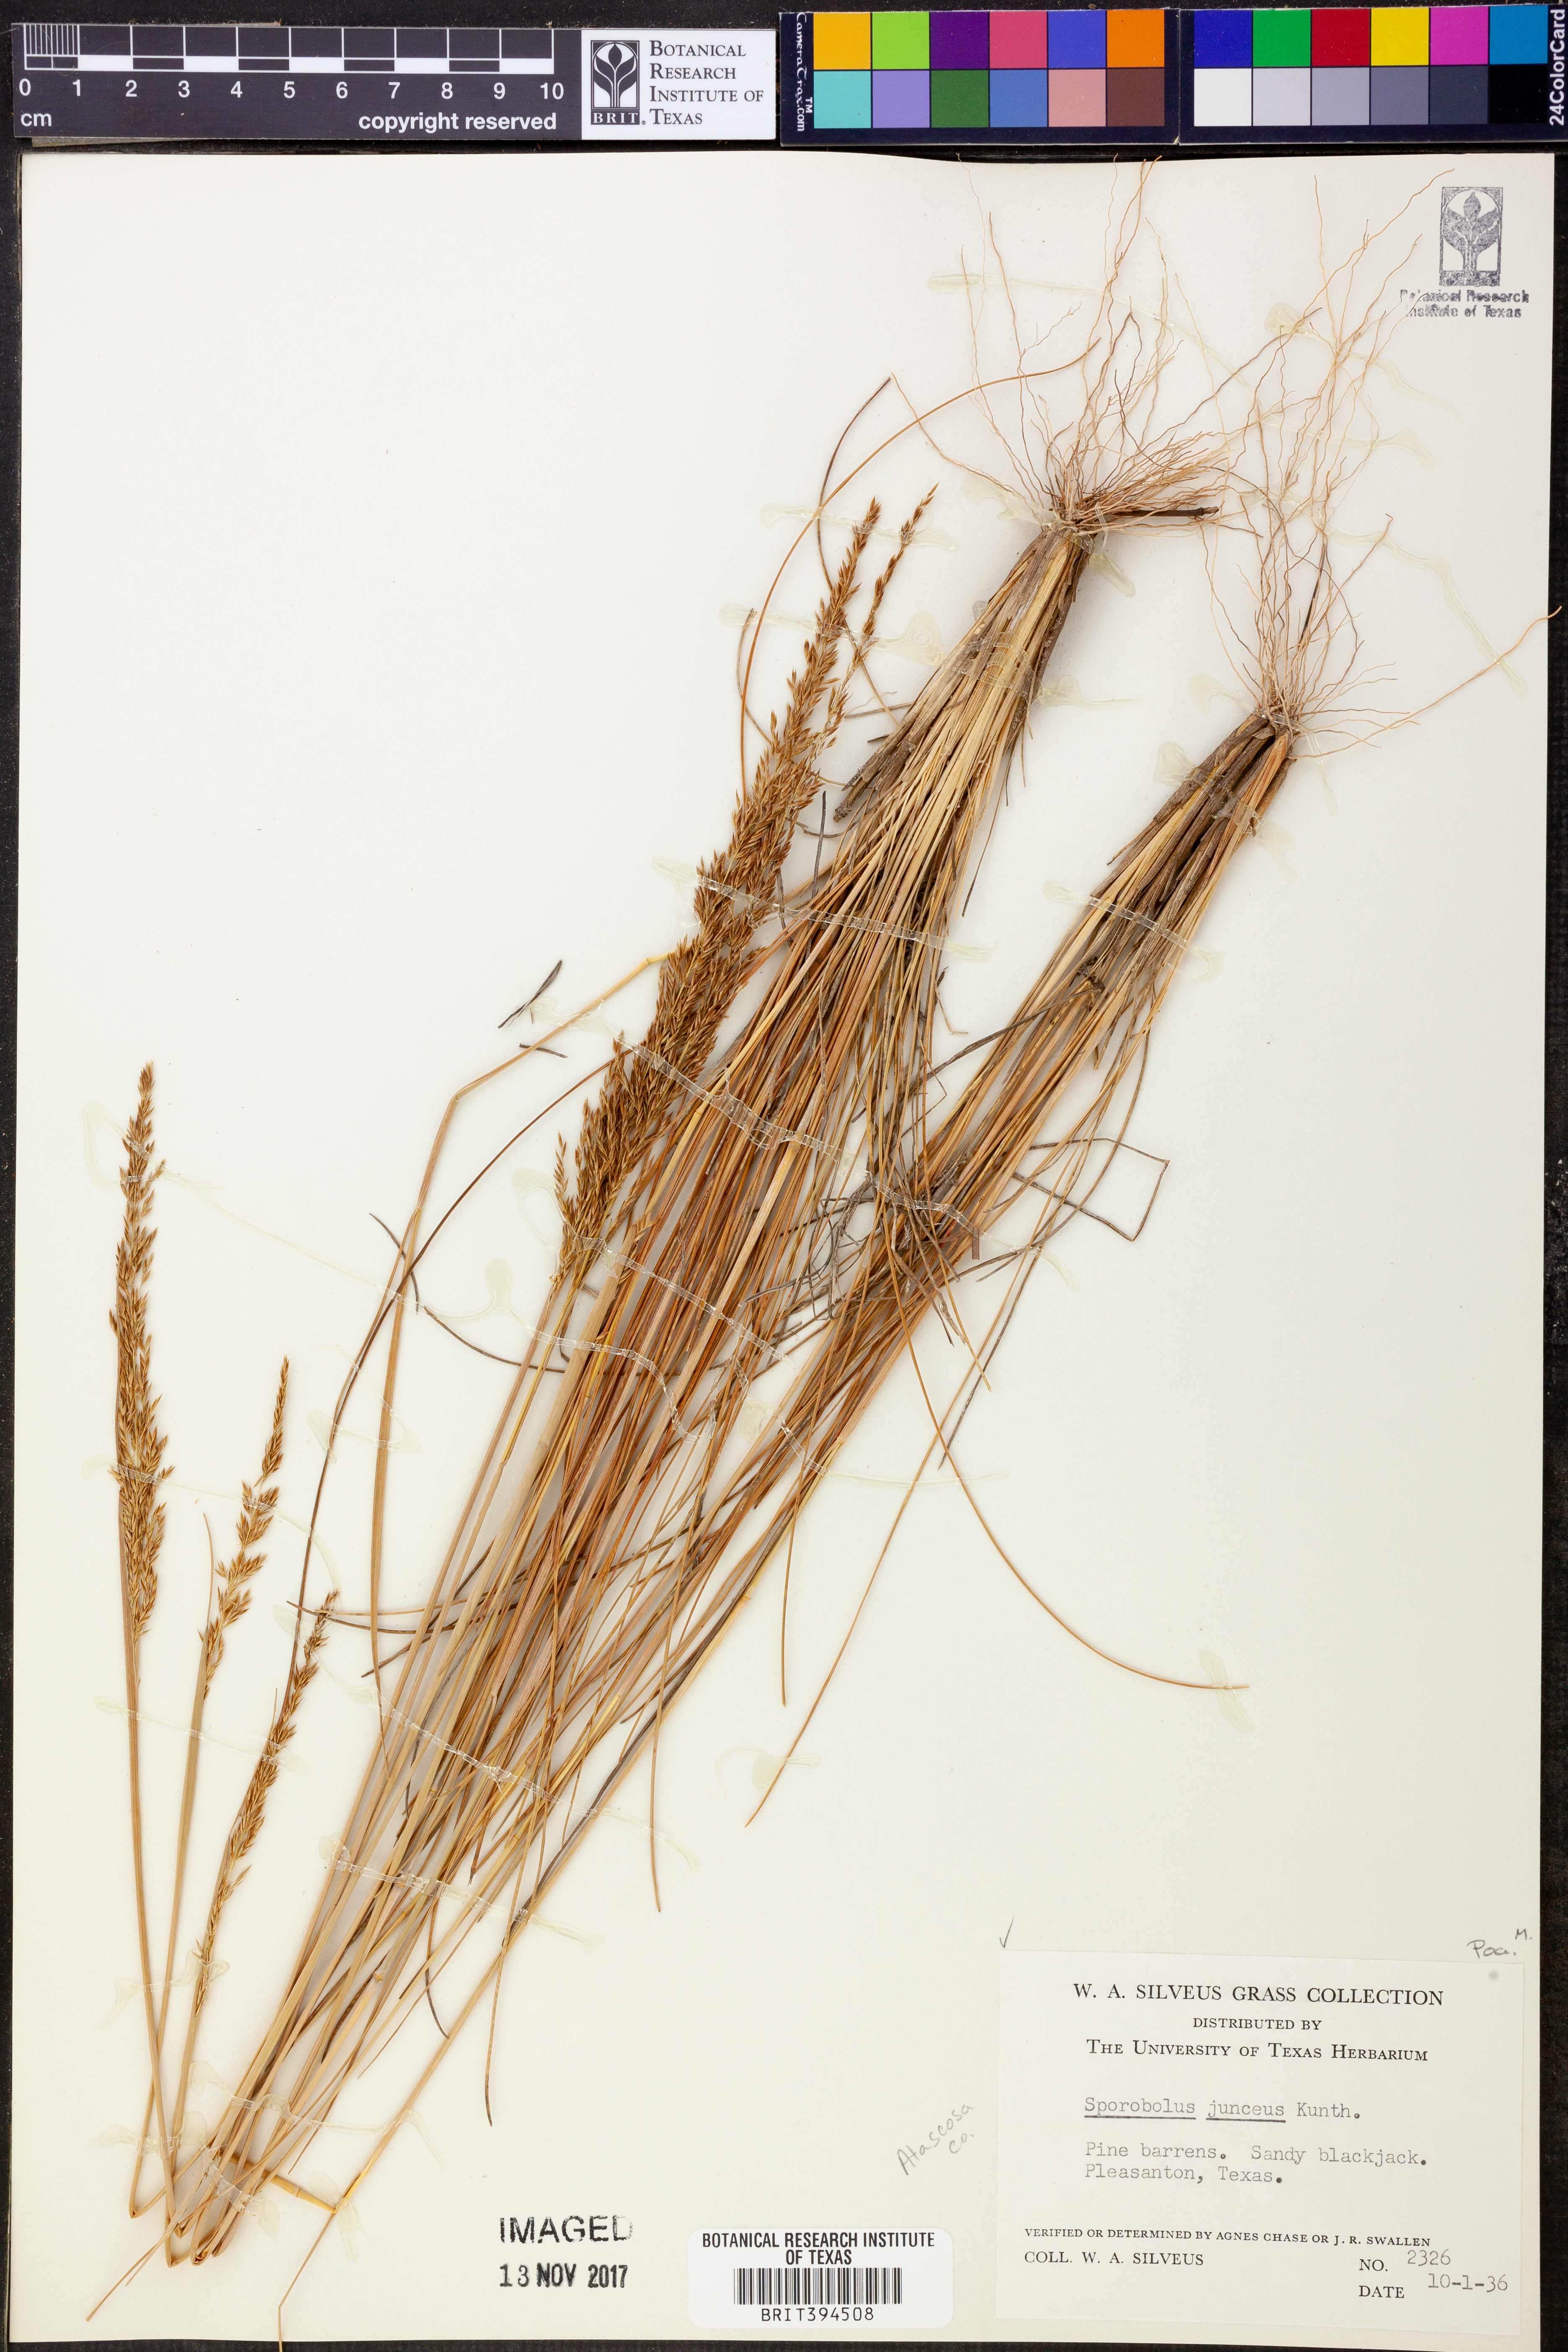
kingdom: Plantae
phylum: Tracheophyta
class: Liliopsida
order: Poales
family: Poaceae
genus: Sporobolus
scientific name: Sporobolus junceus
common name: Lizard grass
